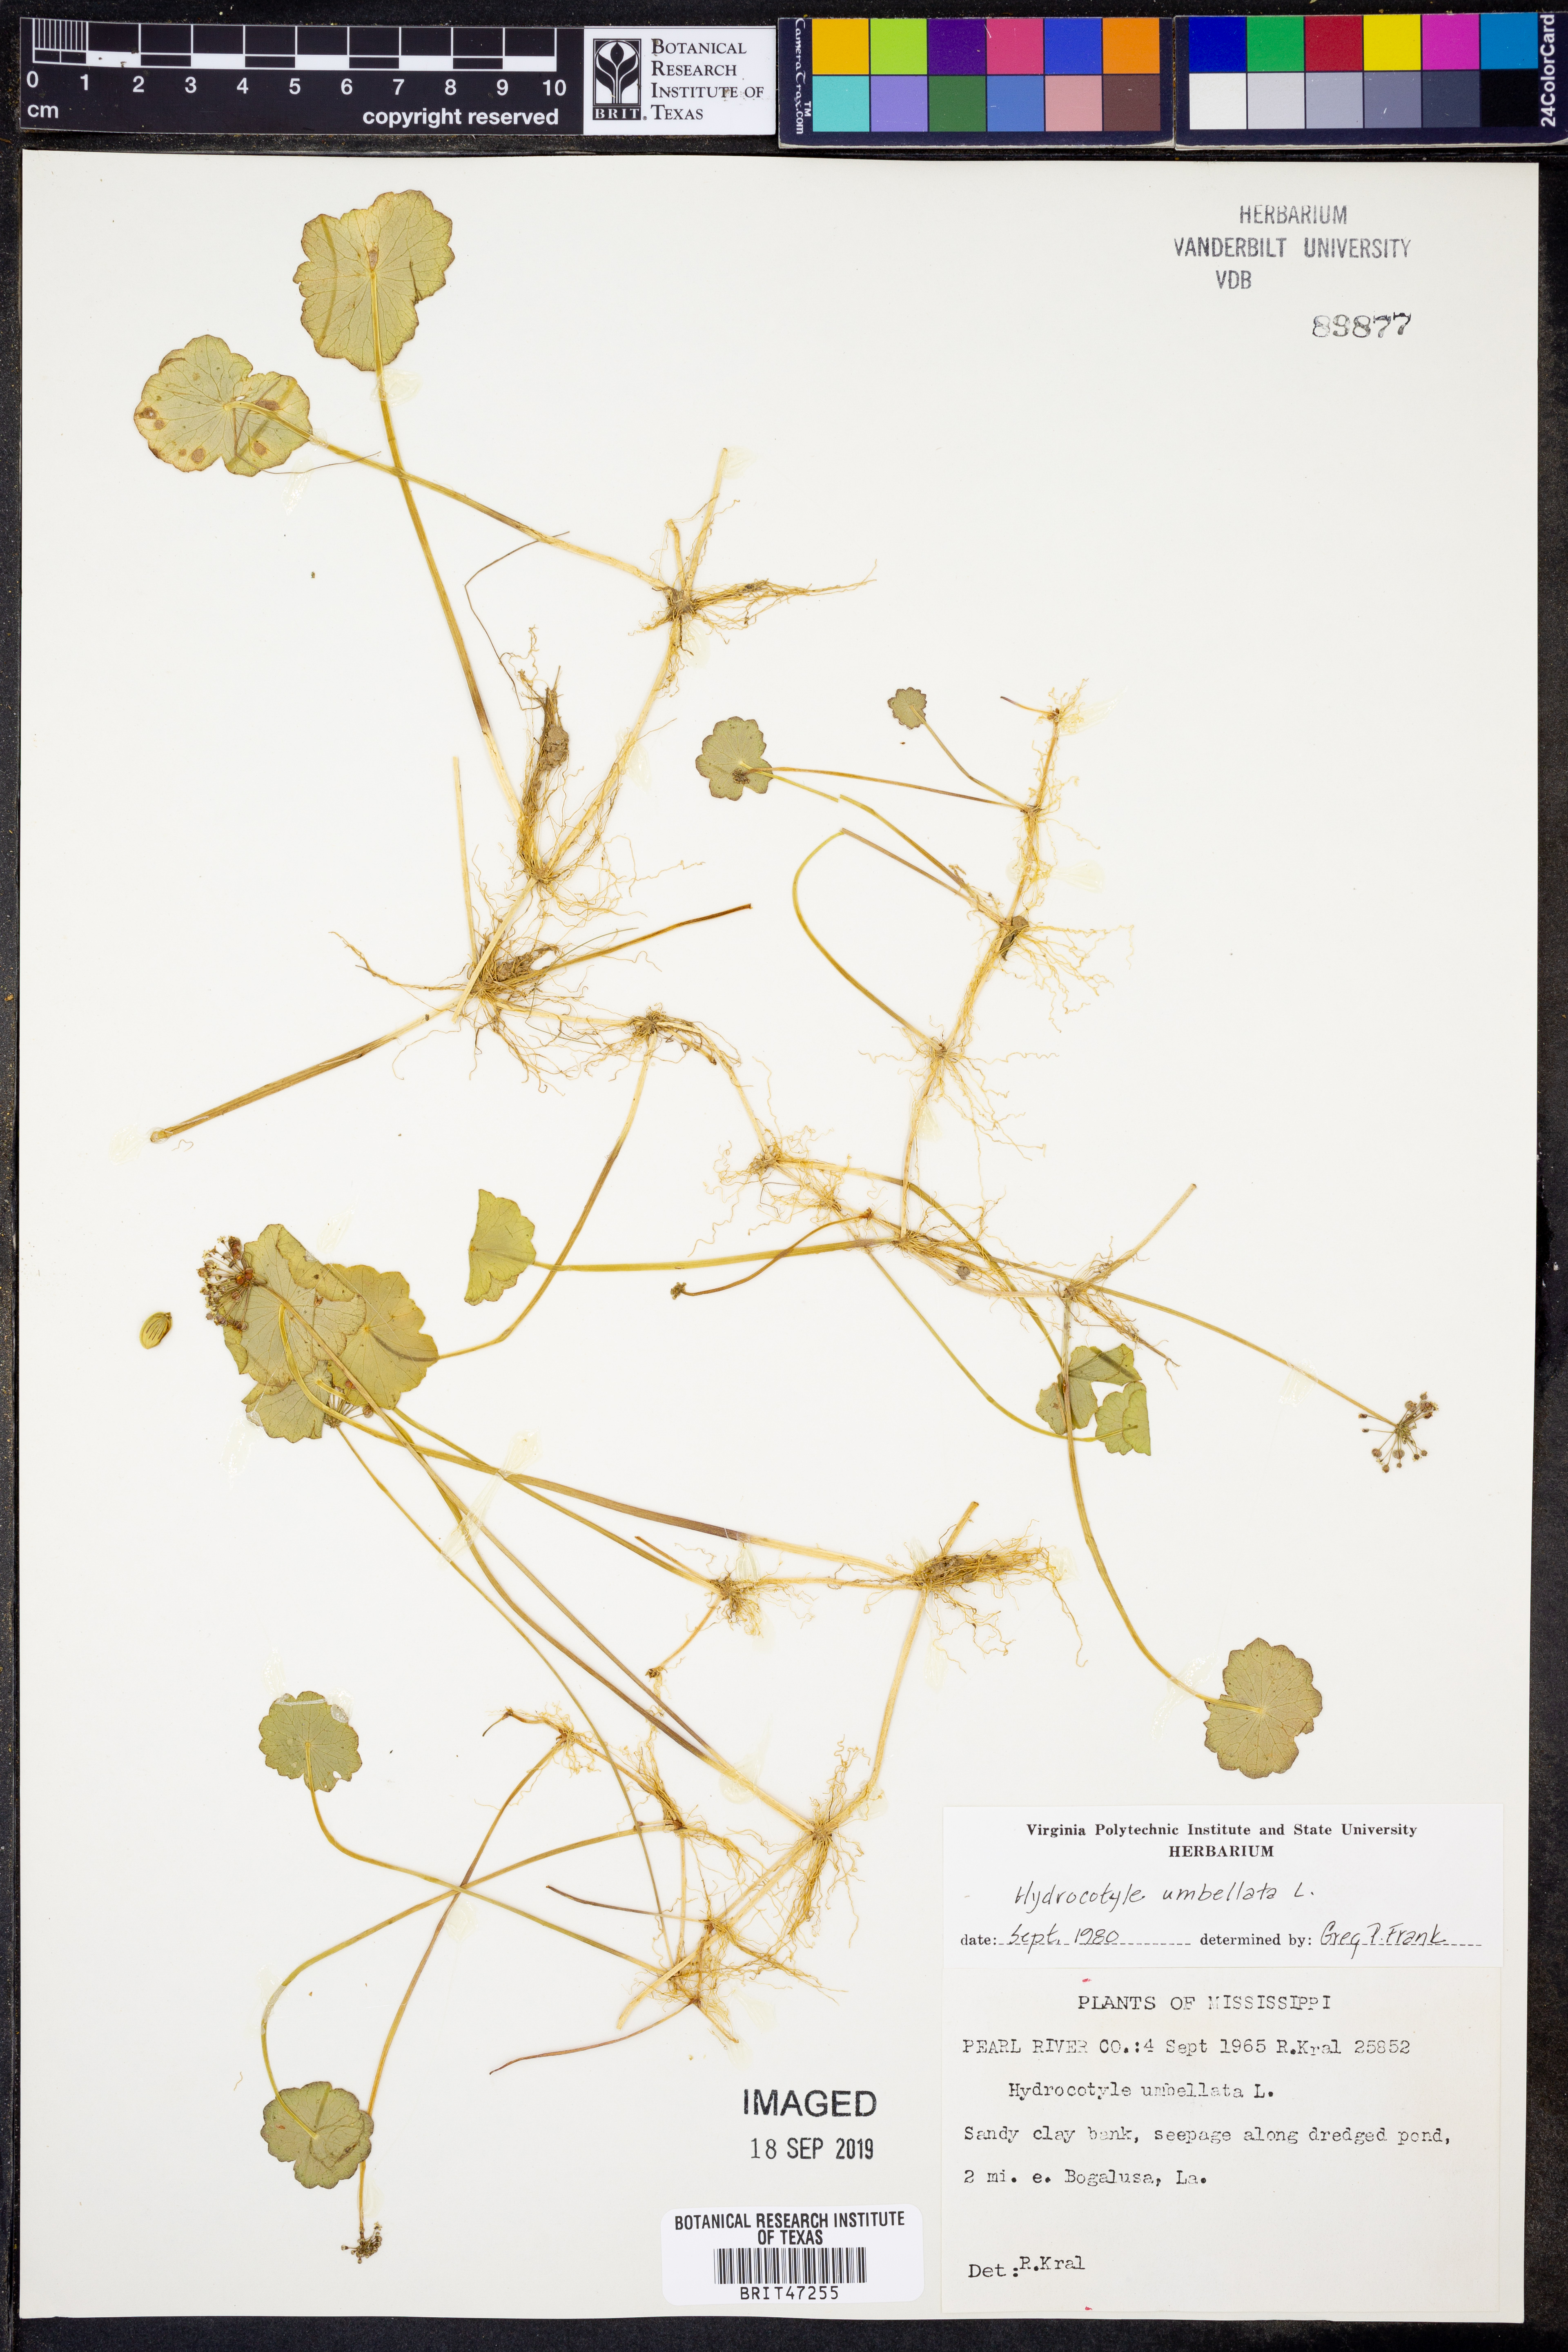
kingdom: Plantae
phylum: Tracheophyta
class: Magnoliopsida
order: Apiales
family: Araliaceae
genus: Hydrocotyle
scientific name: Hydrocotyle umbellata
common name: Water pennywort
